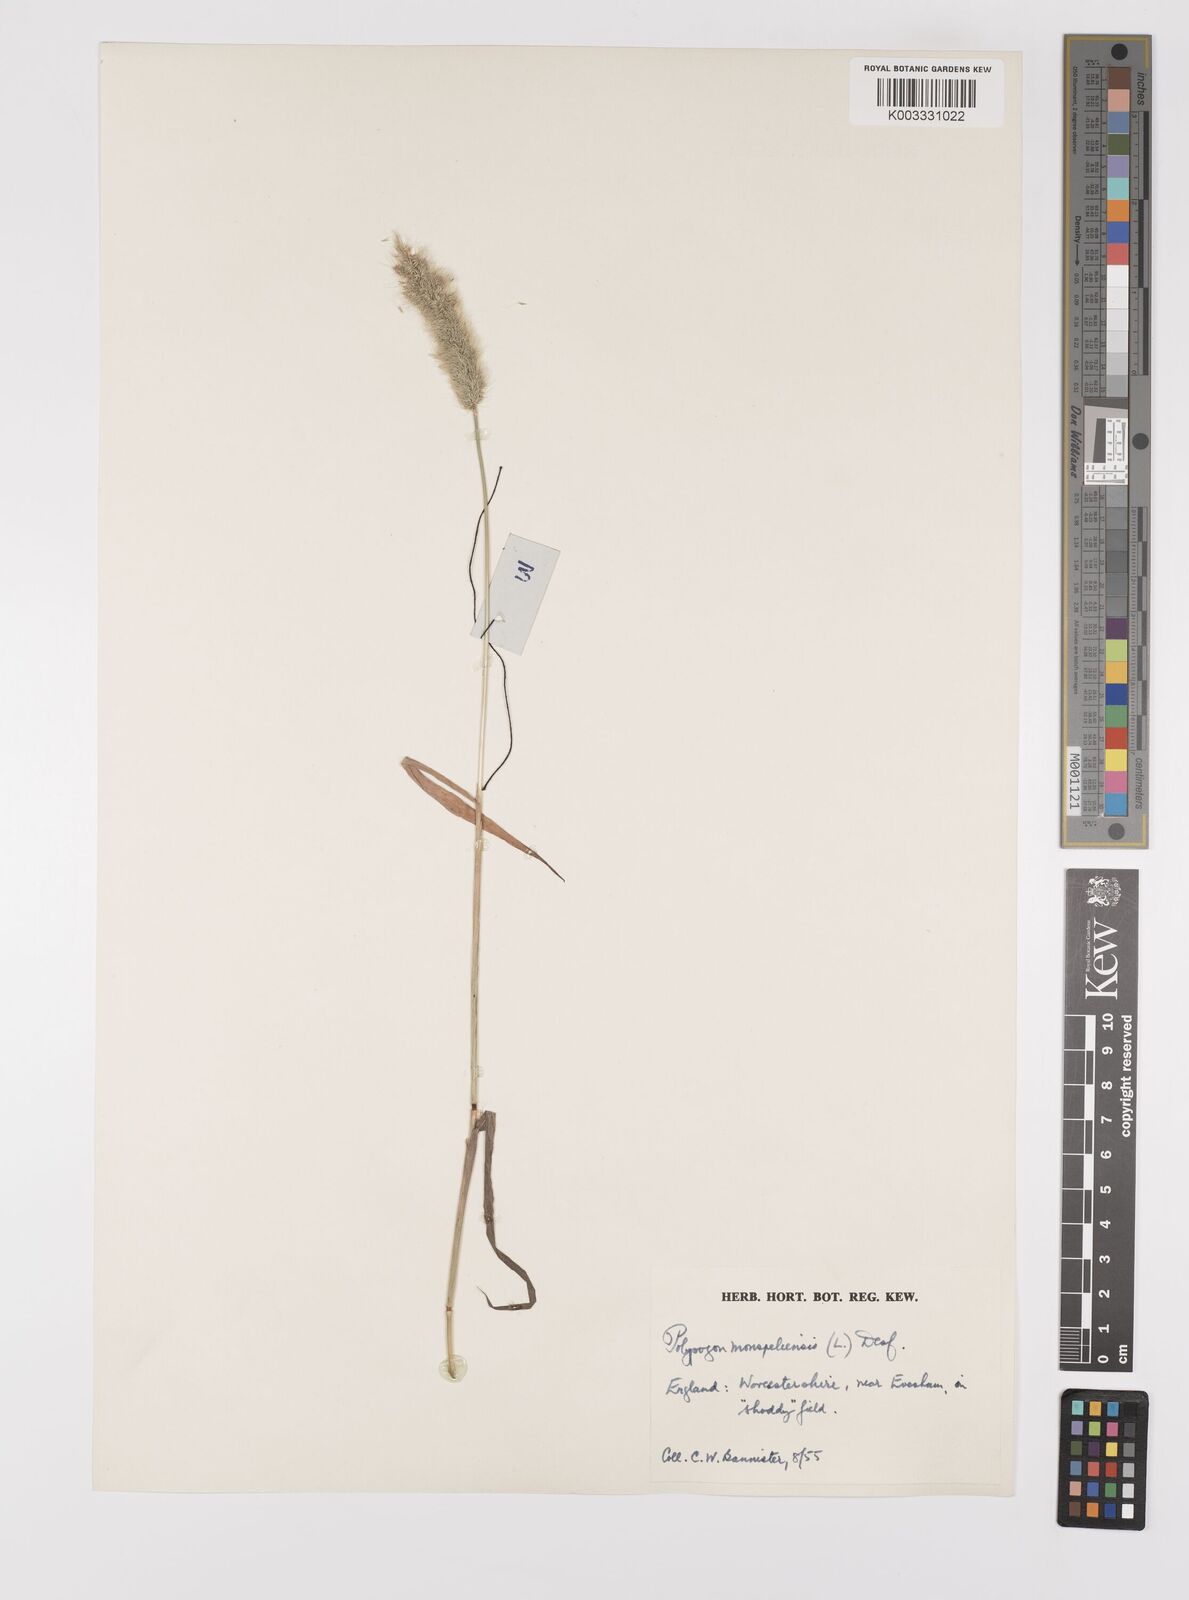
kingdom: Plantae
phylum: Tracheophyta
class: Liliopsida
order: Poales
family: Poaceae
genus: Polypogon
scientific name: Polypogon monspeliensis
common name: Annual rabbitsfoot grass
